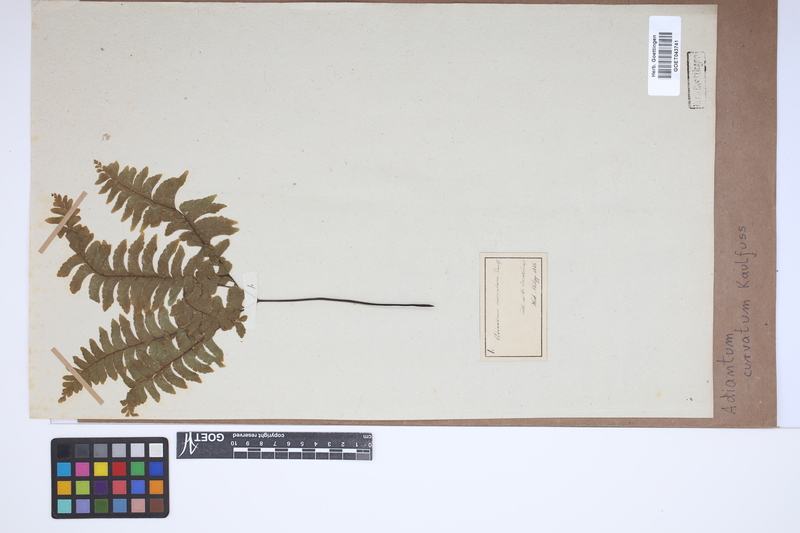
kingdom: Plantae
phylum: Tracheophyta
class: Polypodiopsida
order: Polypodiales
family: Pteridaceae
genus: Adiantum
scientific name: Adiantum curvatum
